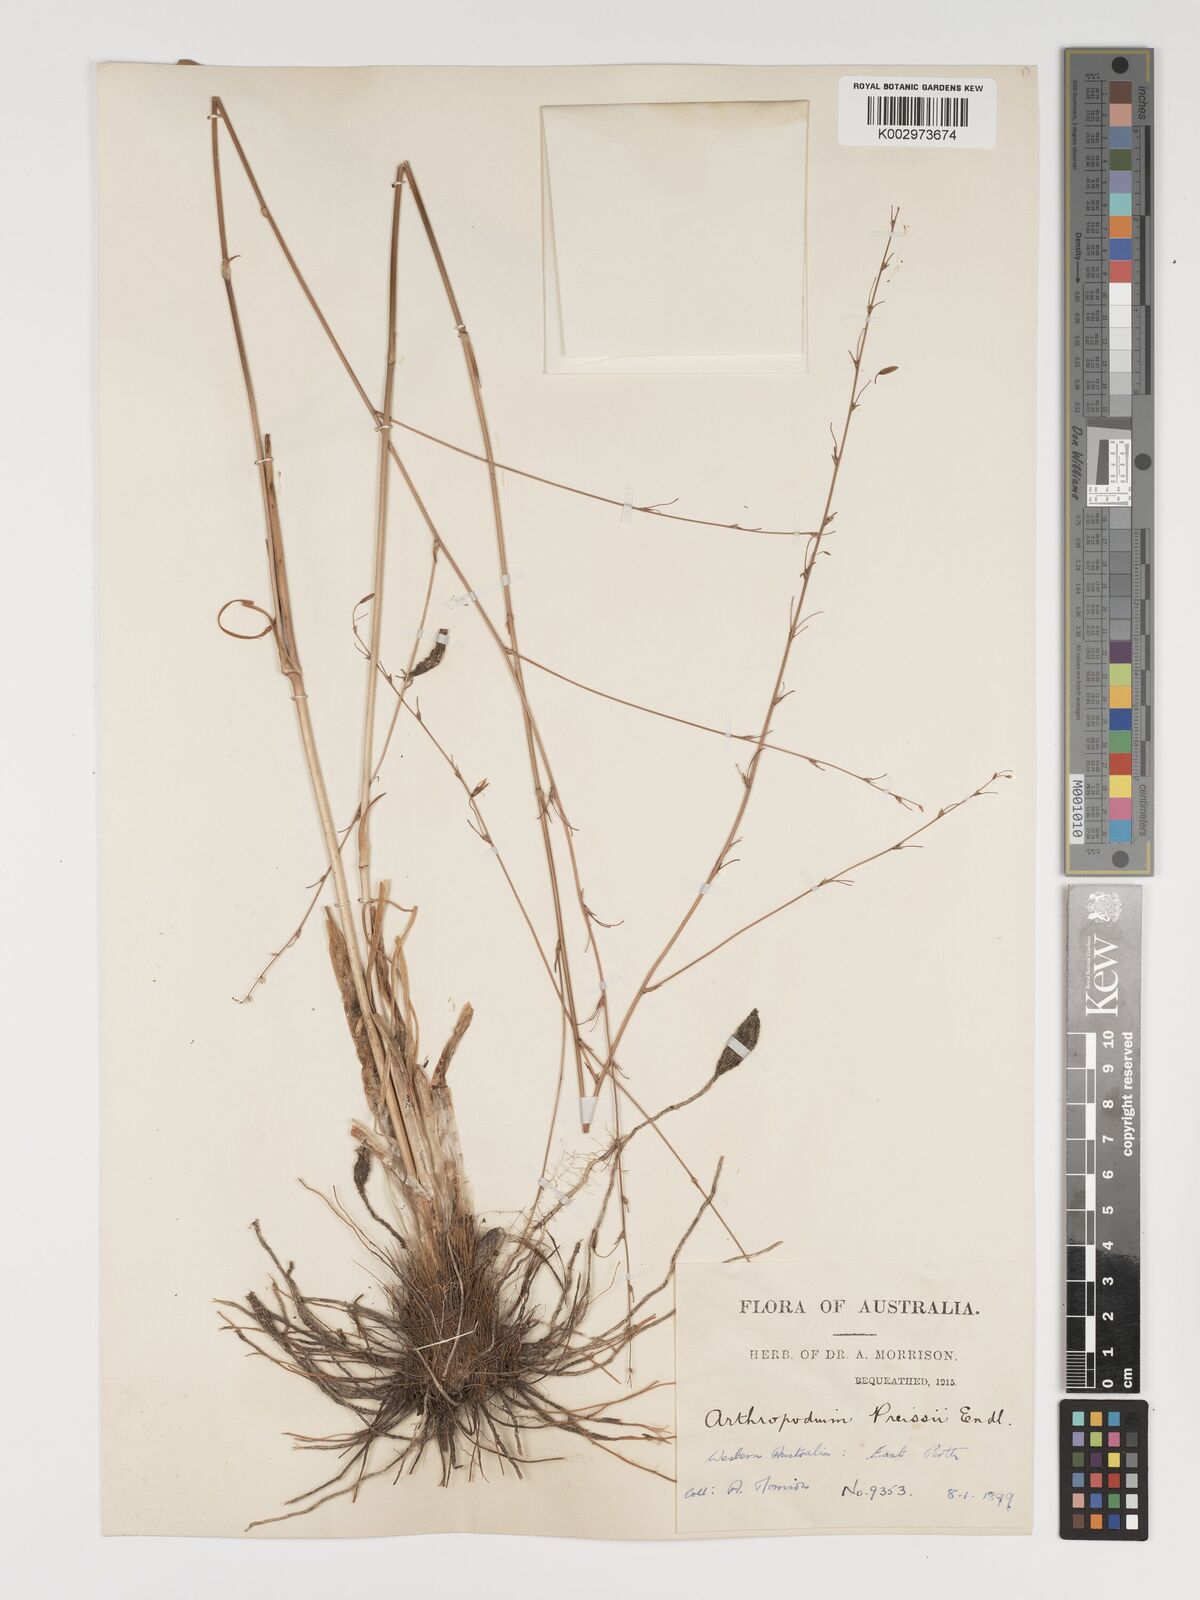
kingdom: Plantae
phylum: Tracheophyta
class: Liliopsida
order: Asparagales
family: Asparagaceae
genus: Dichopogon
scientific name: Dichopogon capillipes
